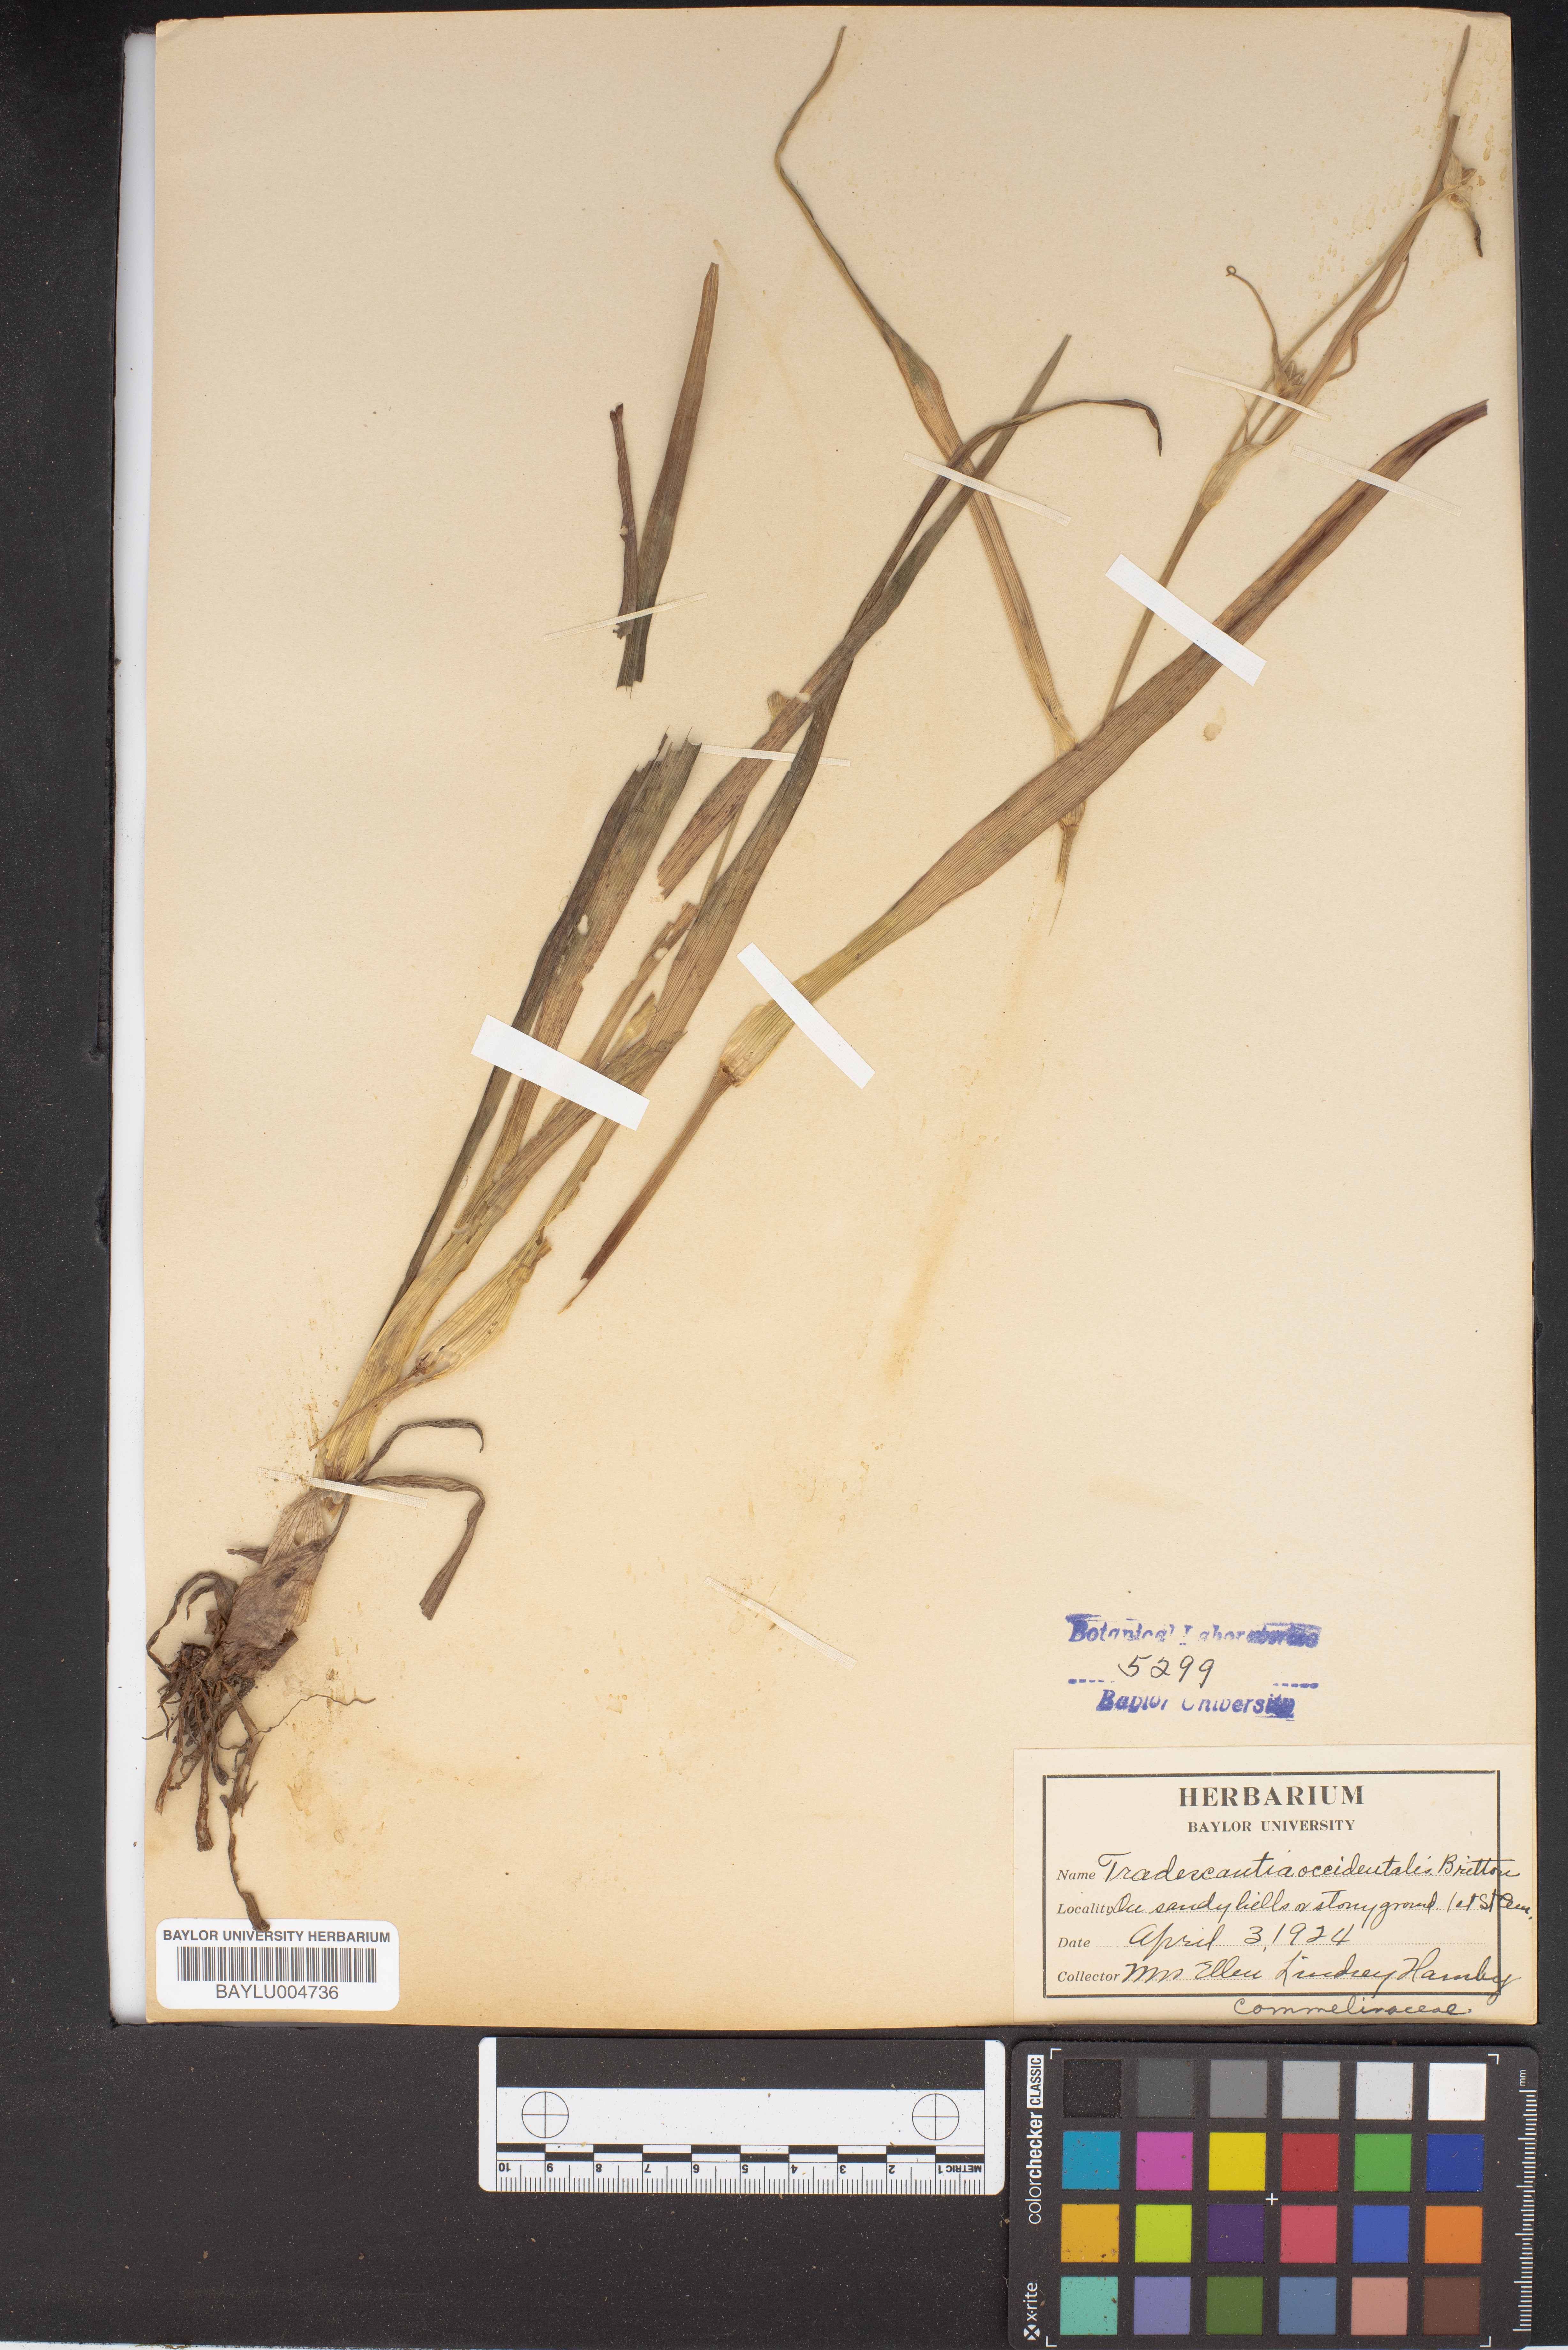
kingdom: Plantae
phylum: Tracheophyta
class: Liliopsida
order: Commelinales
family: Commelinaceae
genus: Tradescantia
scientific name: Tradescantia occidentalis
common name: Prairie spiderwort
